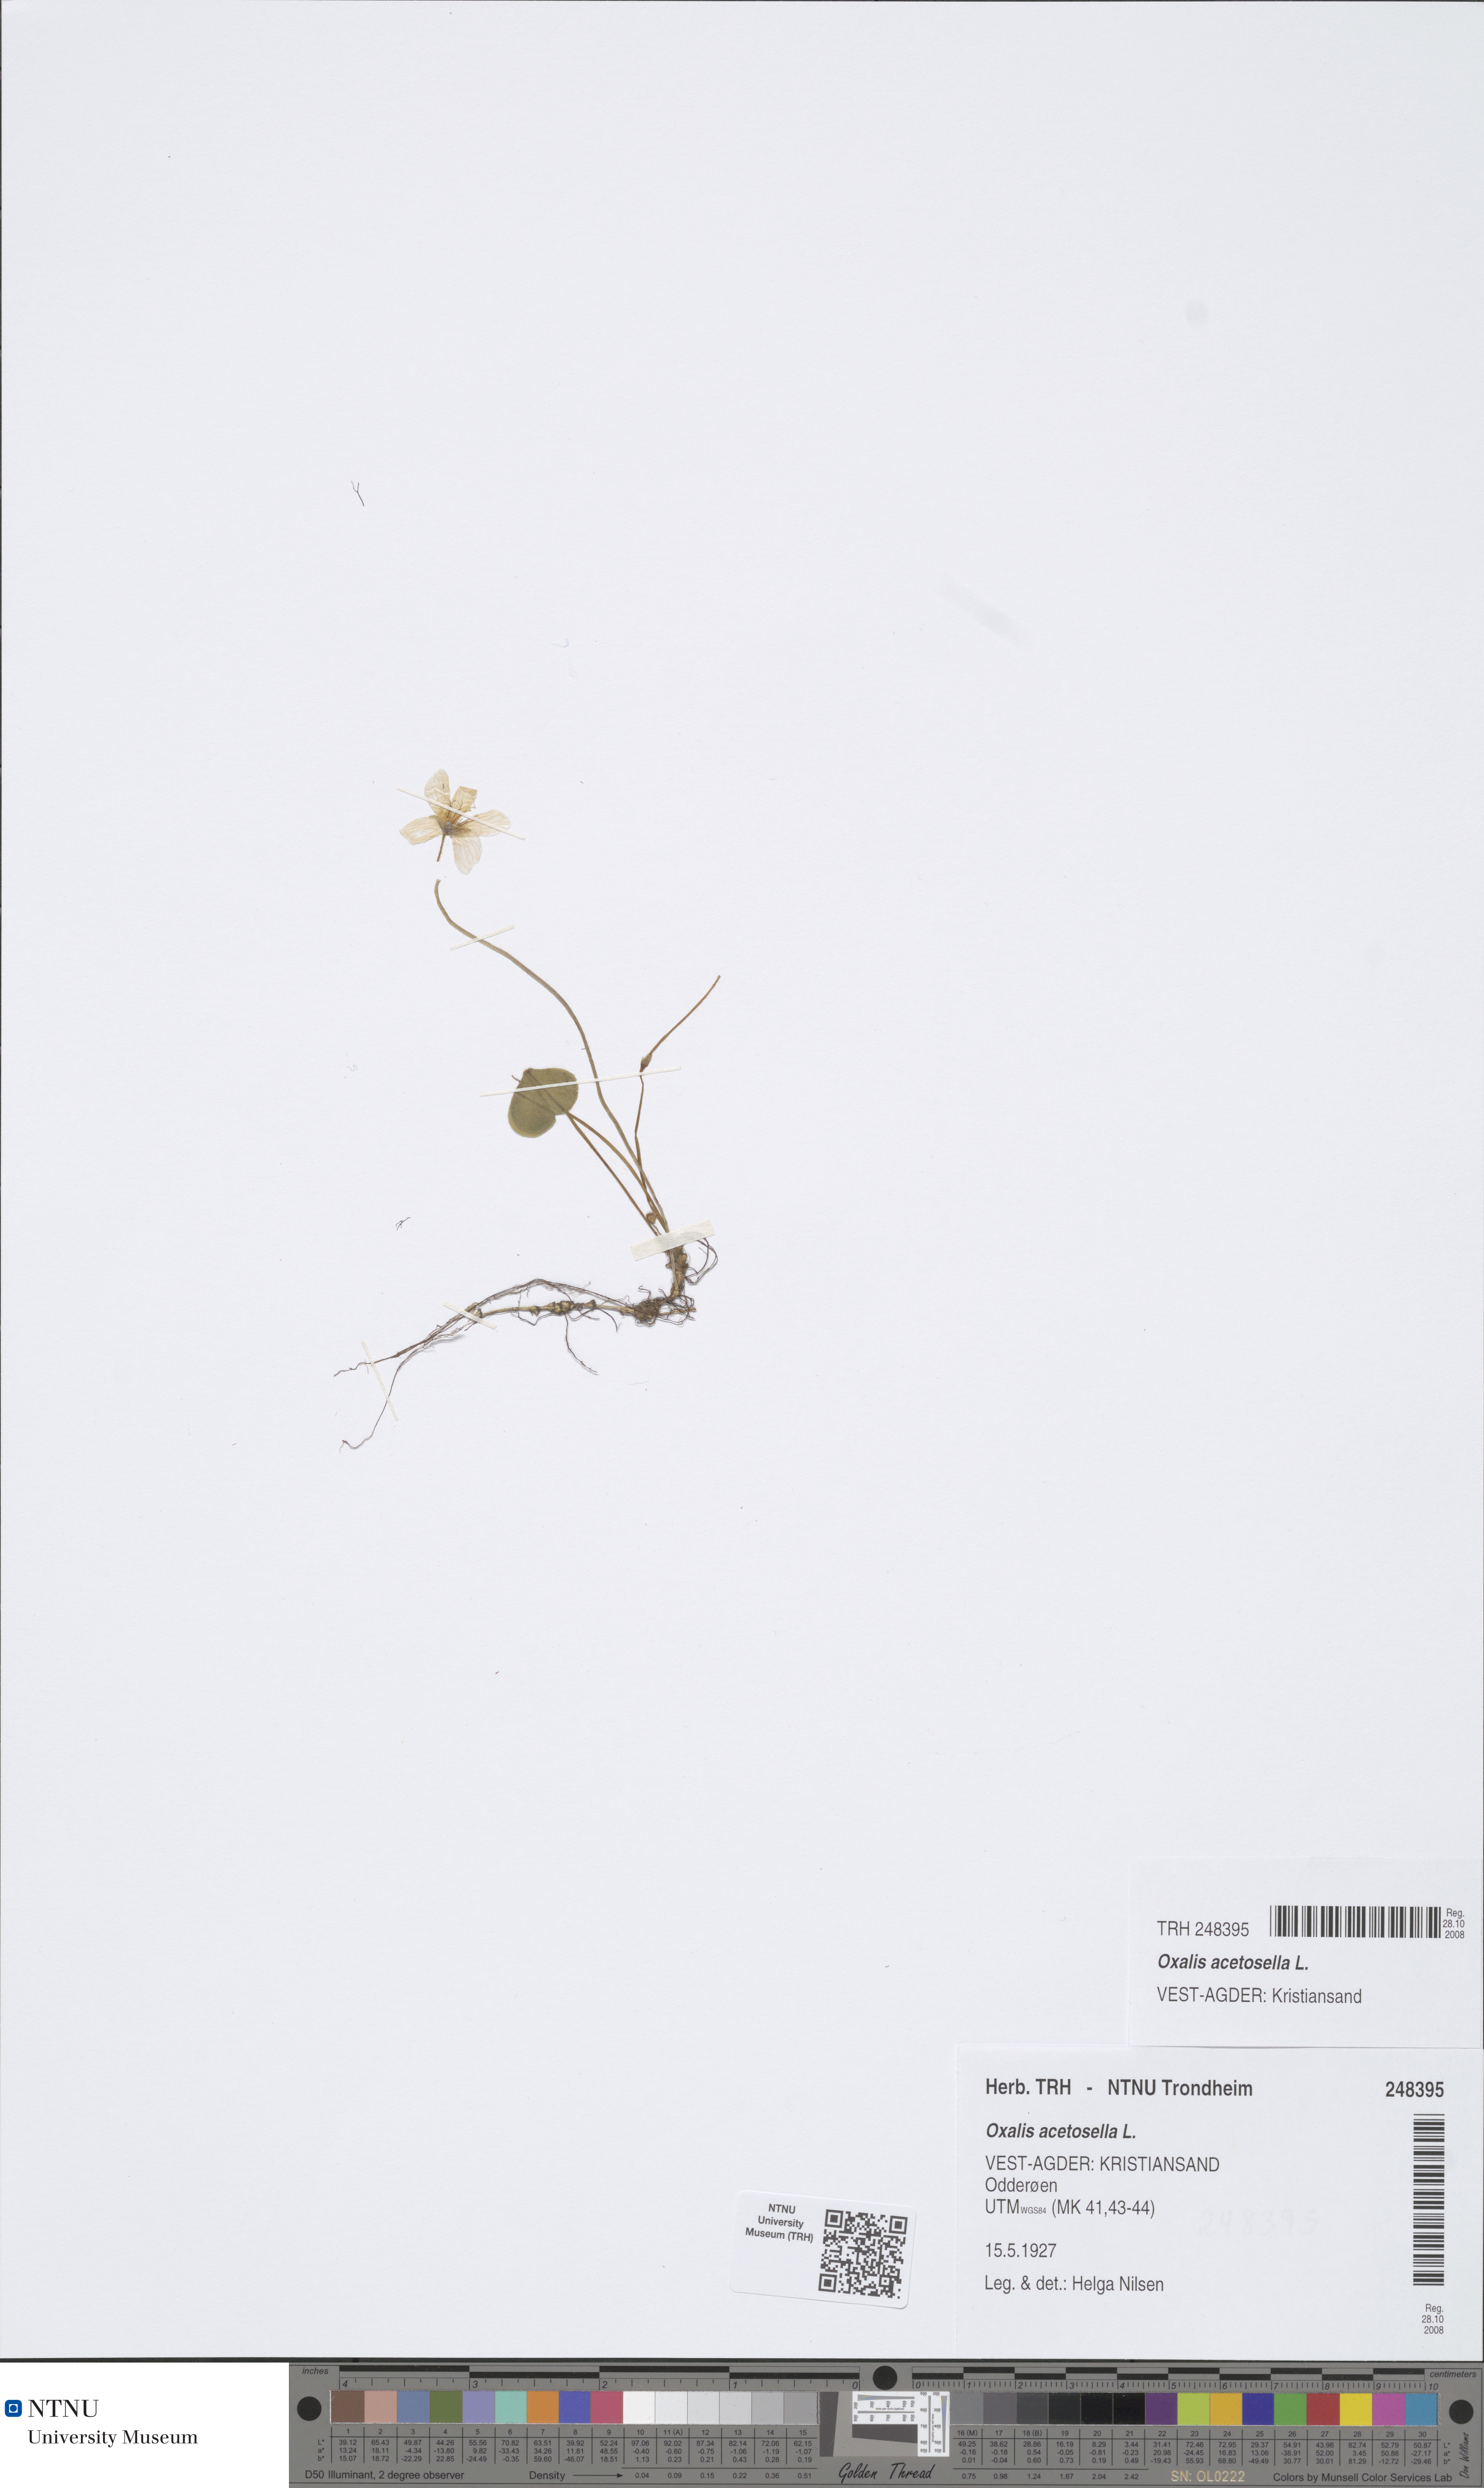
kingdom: Plantae
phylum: Tracheophyta
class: Magnoliopsida
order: Oxalidales
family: Oxalidaceae
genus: Oxalis
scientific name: Oxalis acetosella
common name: Wood-sorrel
